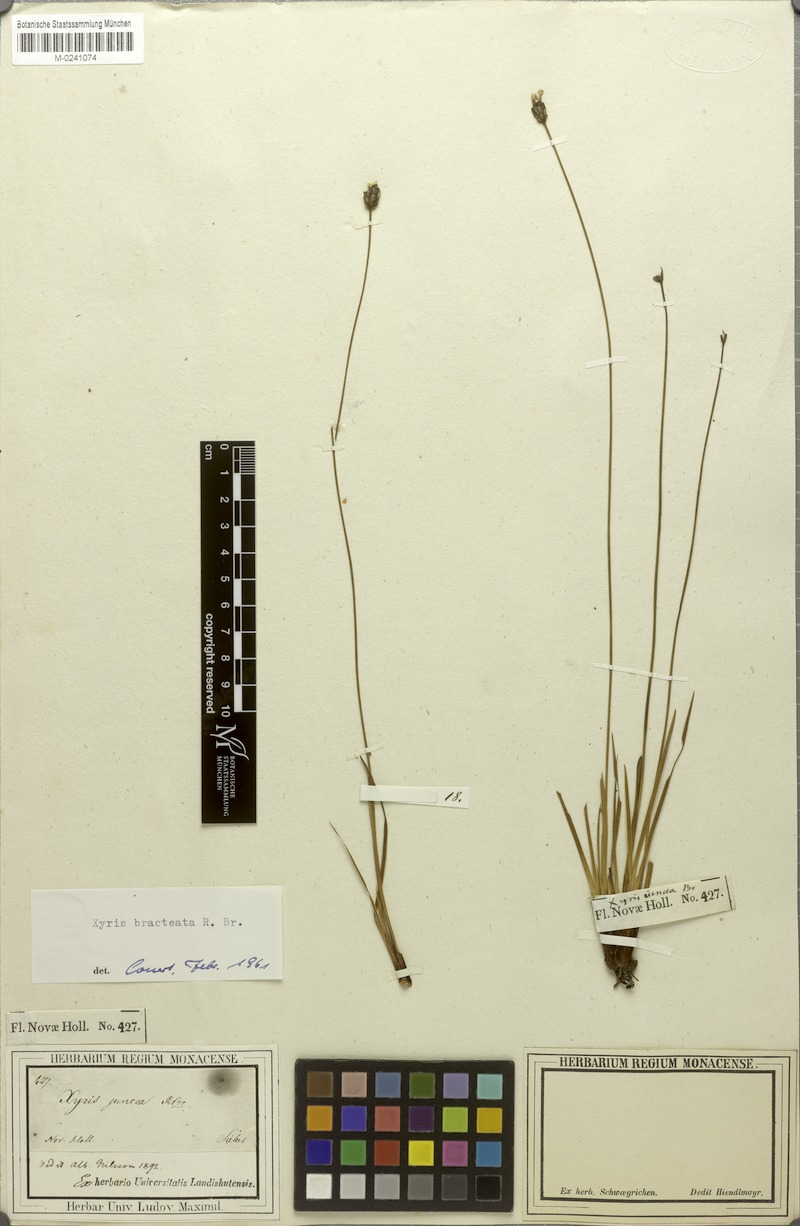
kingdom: Plantae
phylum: Tracheophyta
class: Liliopsida
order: Poales
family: Xyridaceae
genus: Xyris
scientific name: Xyris bracteata
